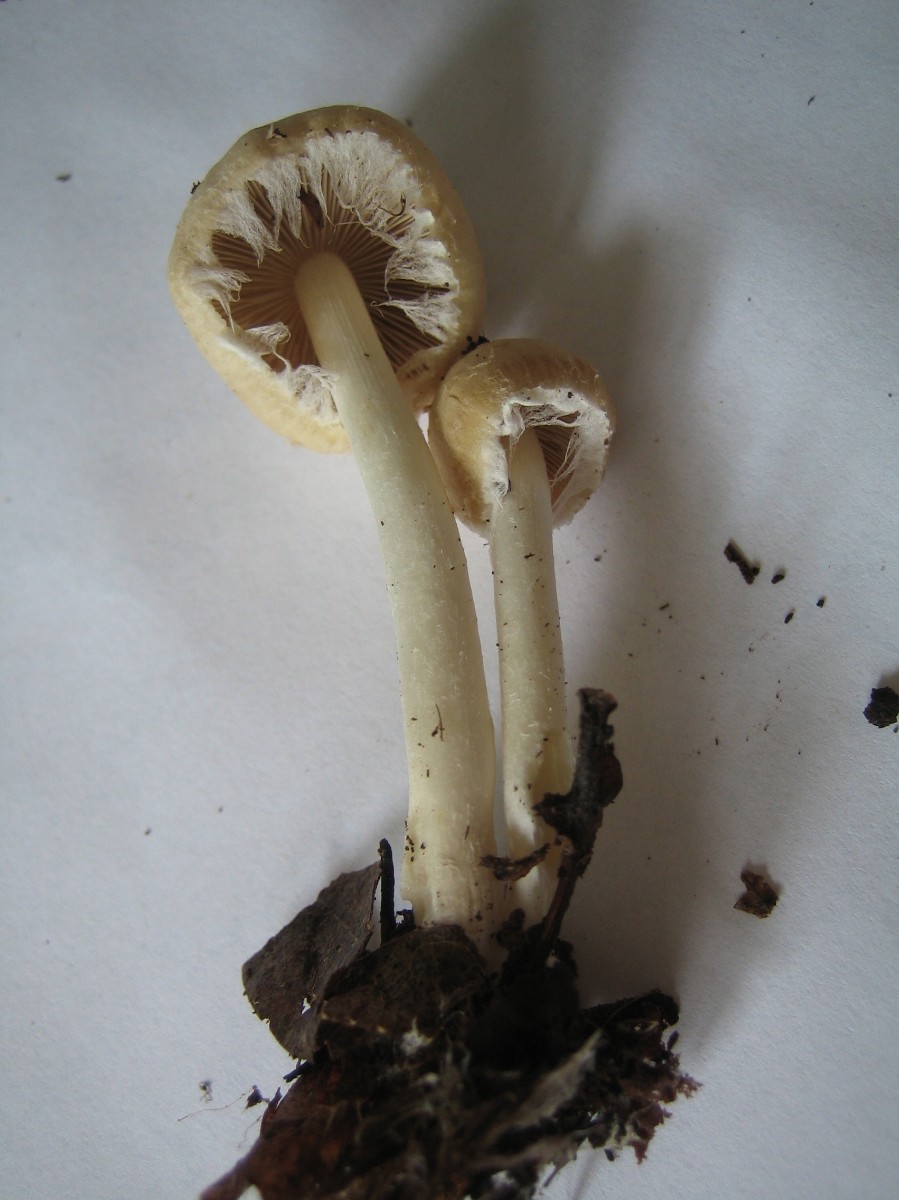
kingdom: Fungi
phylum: Basidiomycota
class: Agaricomycetes
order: Agaricales
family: Psathyrellaceae
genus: Candolleomyces
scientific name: Candolleomyces candolleanus
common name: Candolles mørkhat
